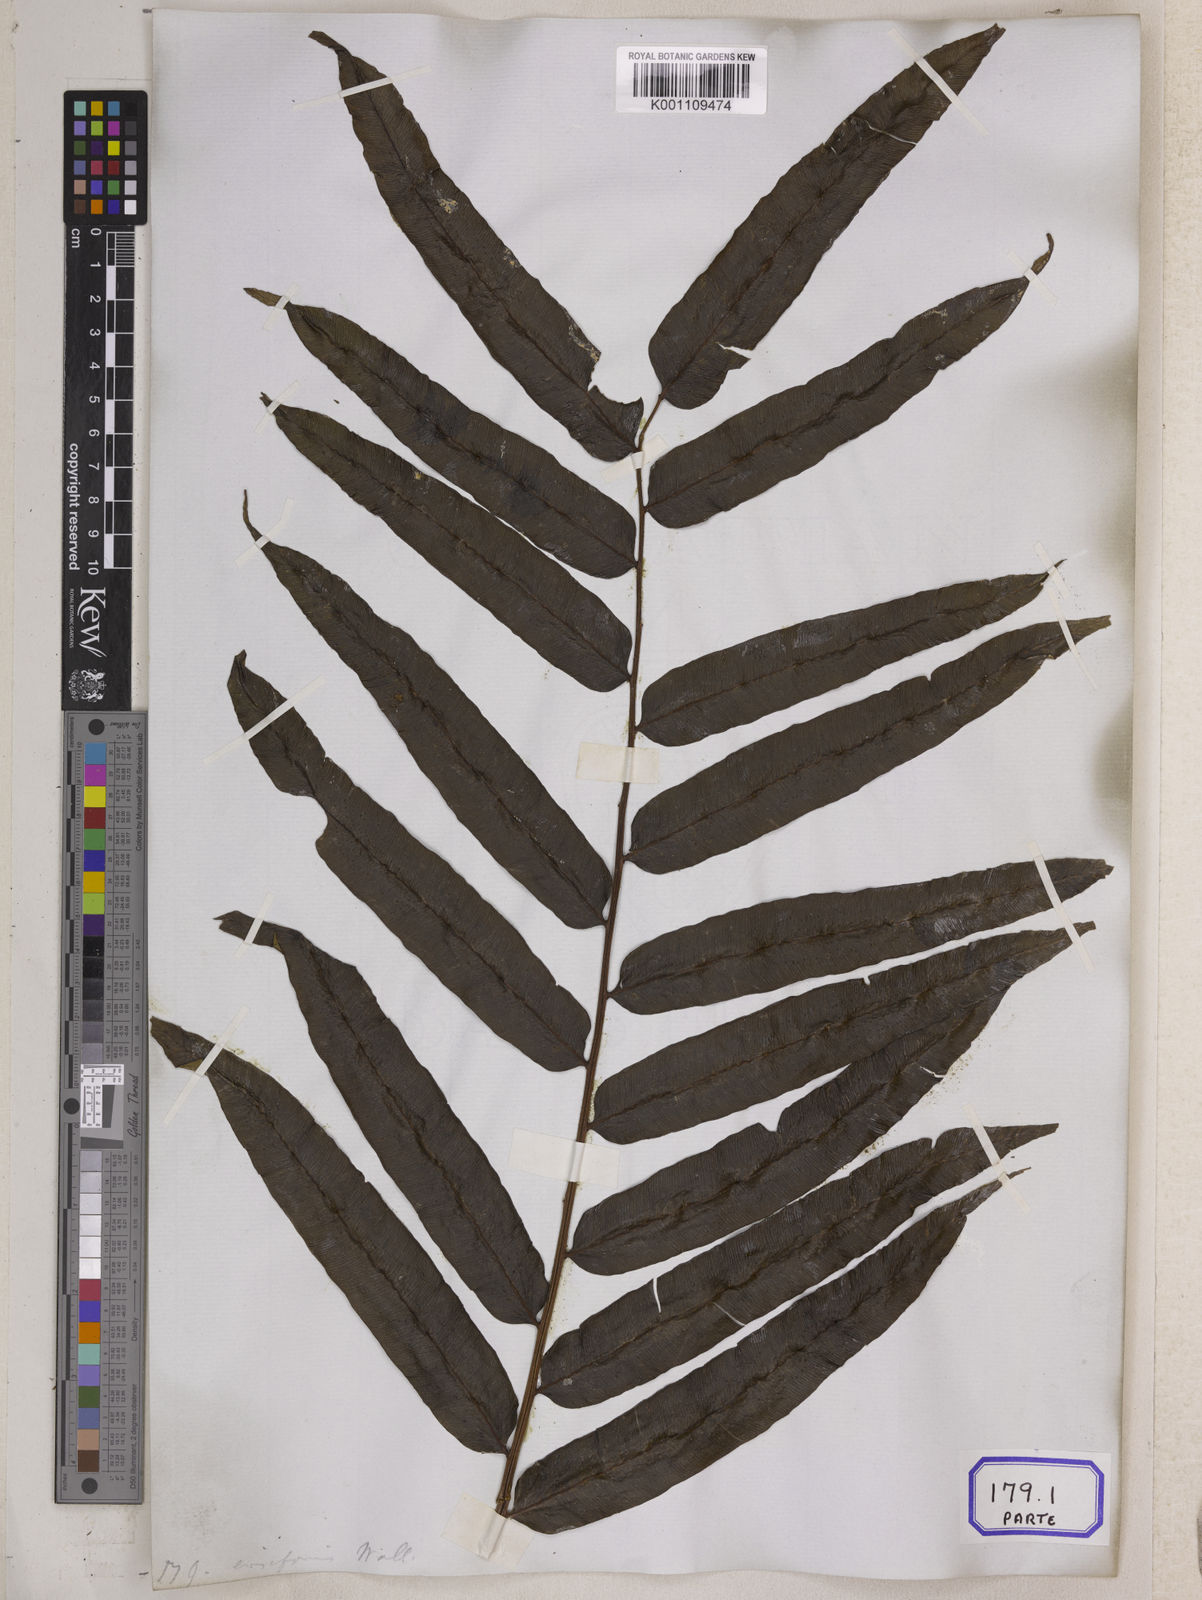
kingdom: Plantae
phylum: Tracheophyta
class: Polypodiopsida
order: Cyatheales
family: Cyatheaceae
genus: Sphaeropteris
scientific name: Sphaeropteris moluccana
